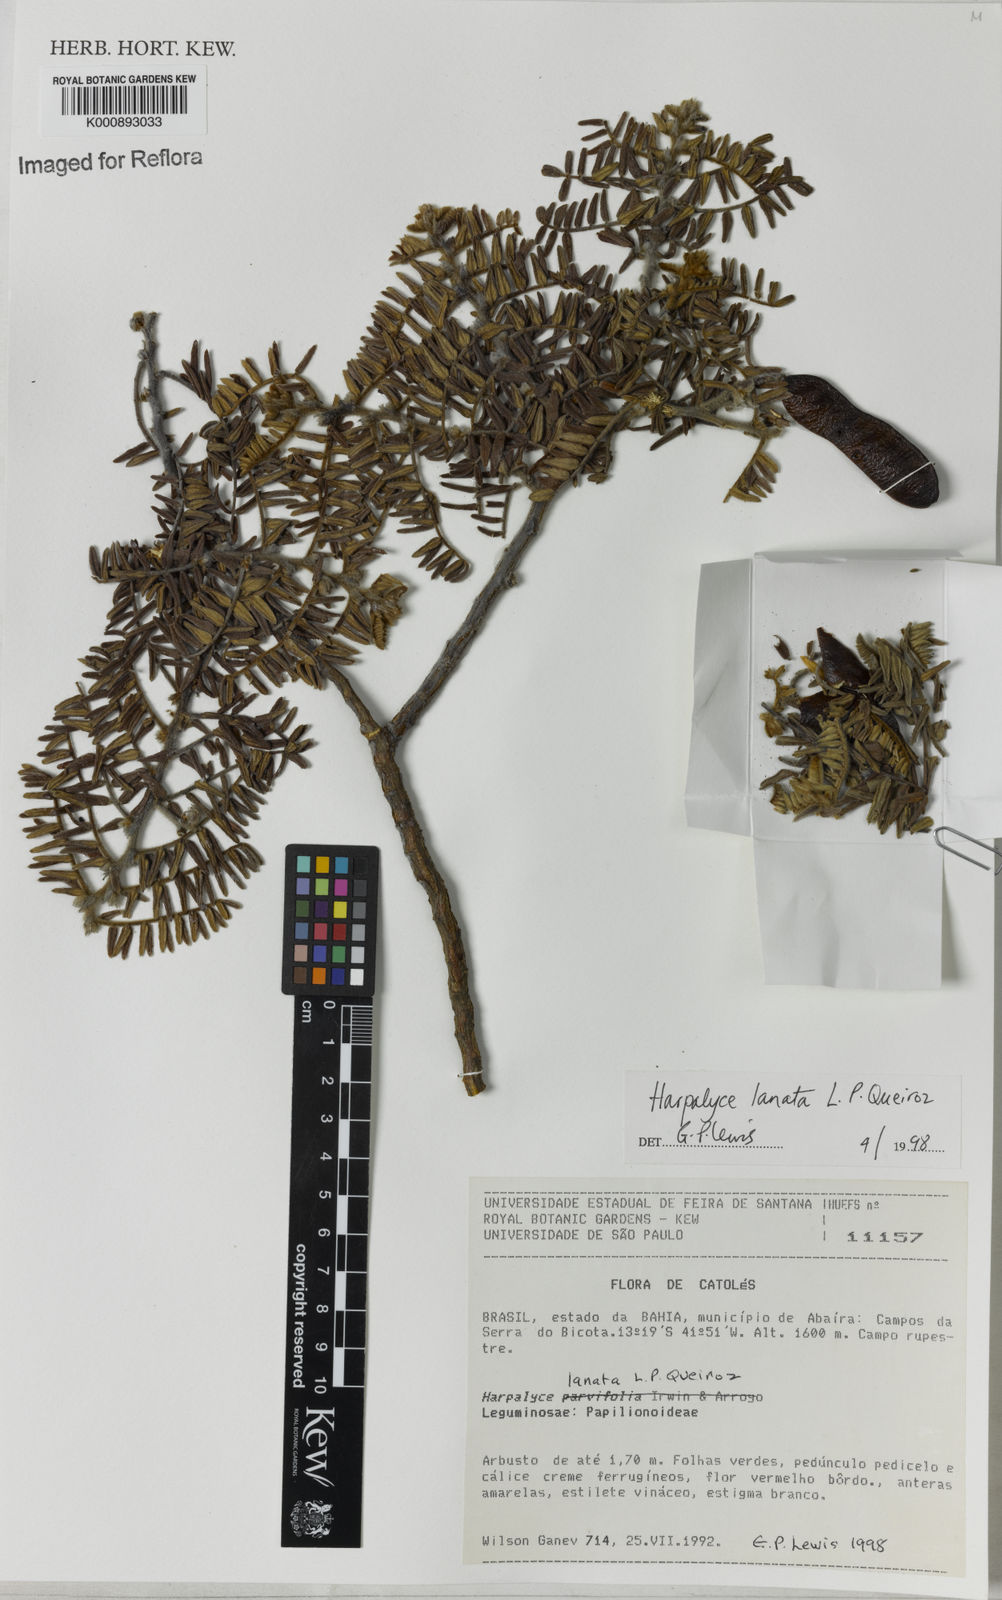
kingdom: Plantae
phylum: Tracheophyta
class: Magnoliopsida
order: Fabales
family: Fabaceae
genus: Harpalyce
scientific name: Harpalyce lanata
